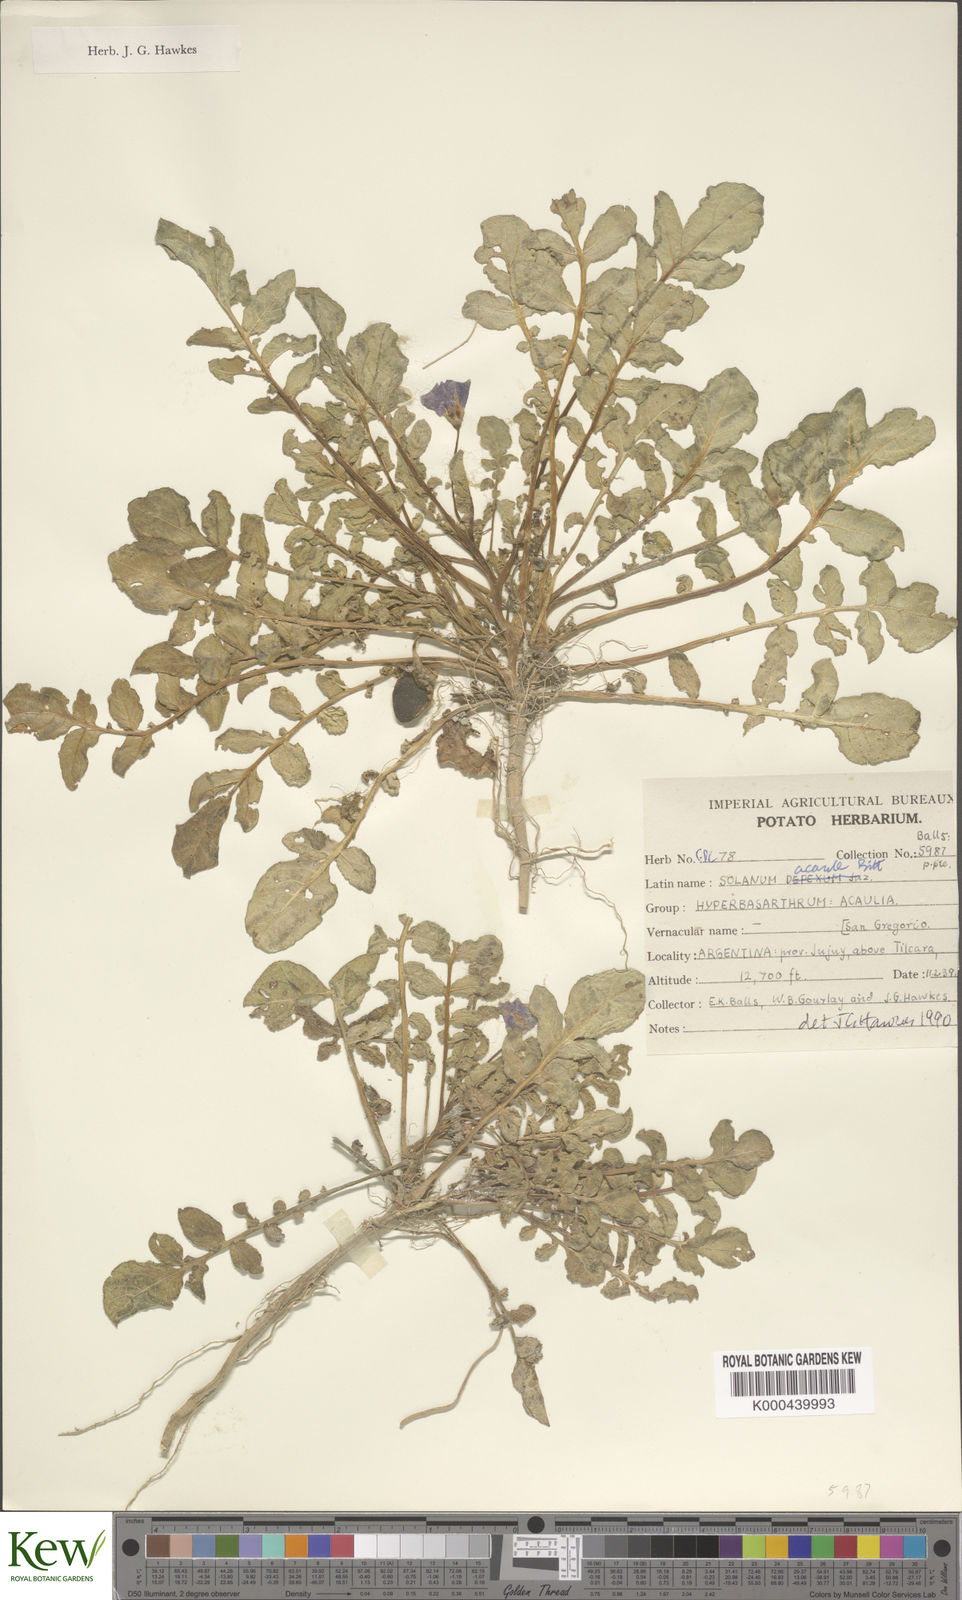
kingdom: Plantae
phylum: Tracheophyta
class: Magnoliopsida
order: Solanales
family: Solanaceae
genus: Solanum
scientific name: Solanum acaule
